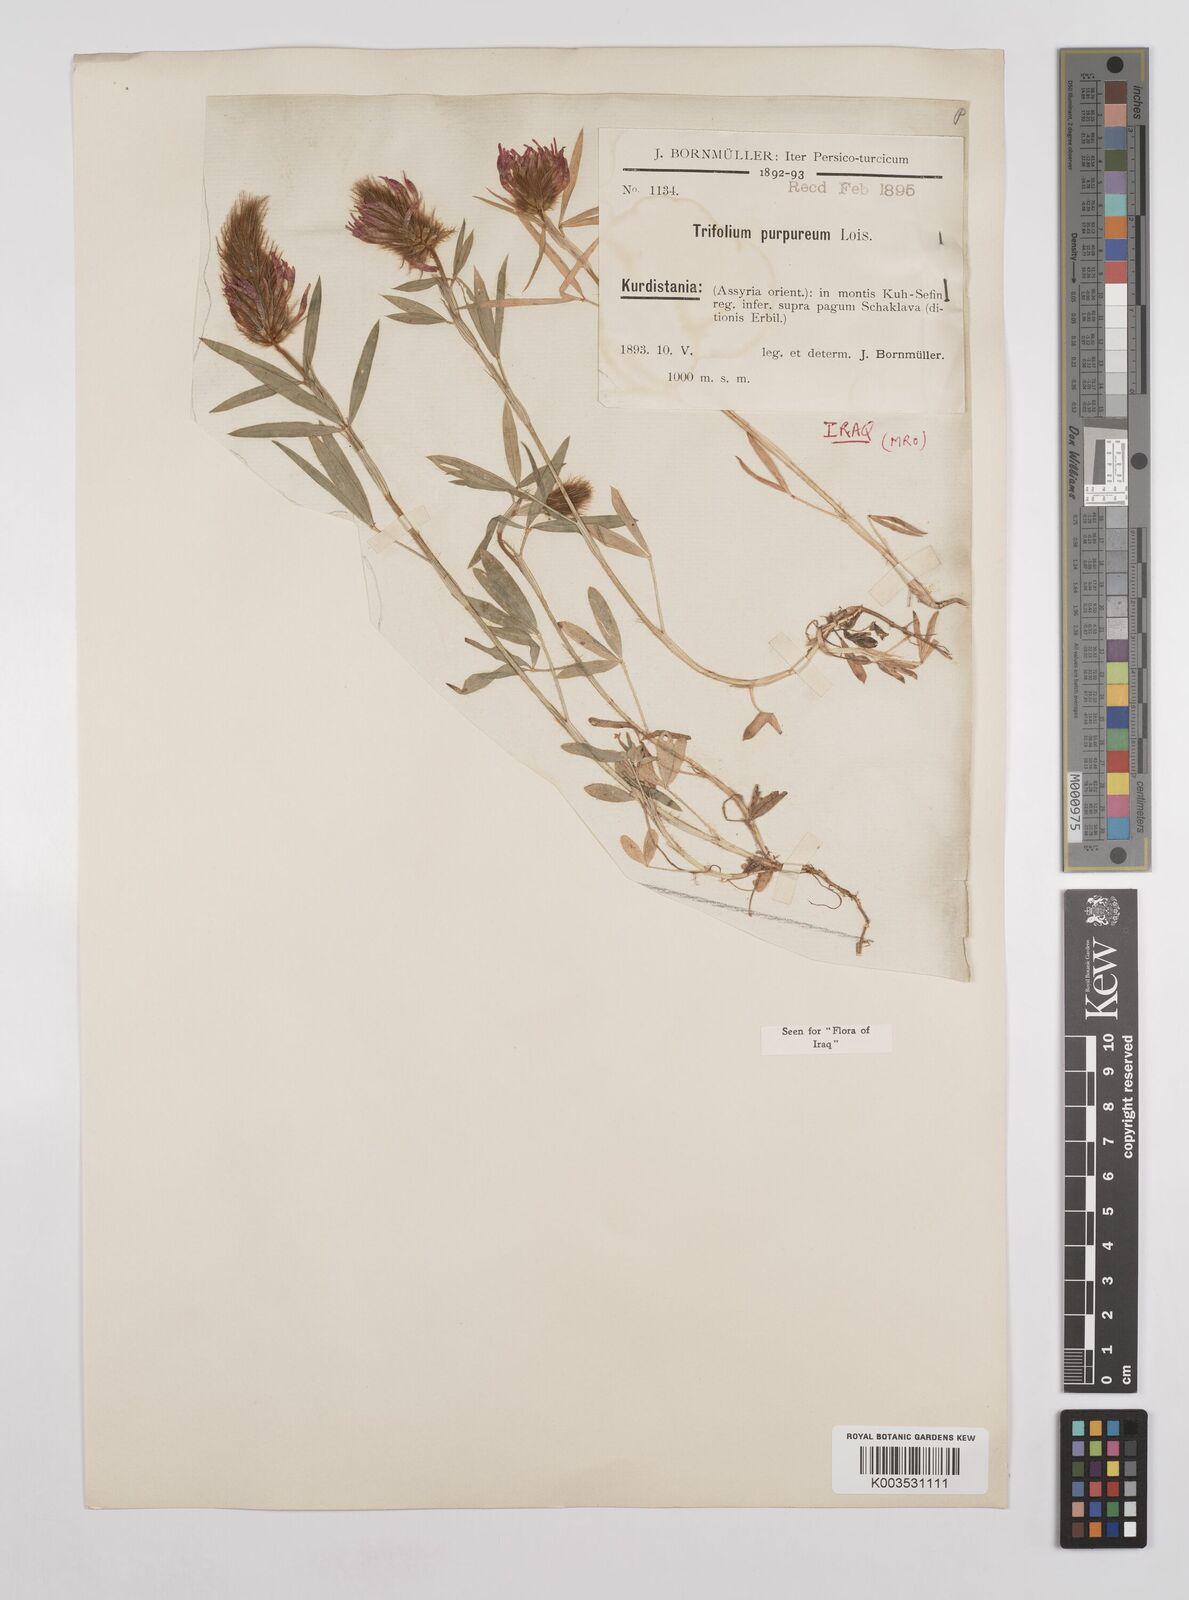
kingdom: Plantae
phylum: Tracheophyta
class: Magnoliopsida
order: Fabales
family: Fabaceae
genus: Trifolium
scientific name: Trifolium purpureum
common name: Purple clover
